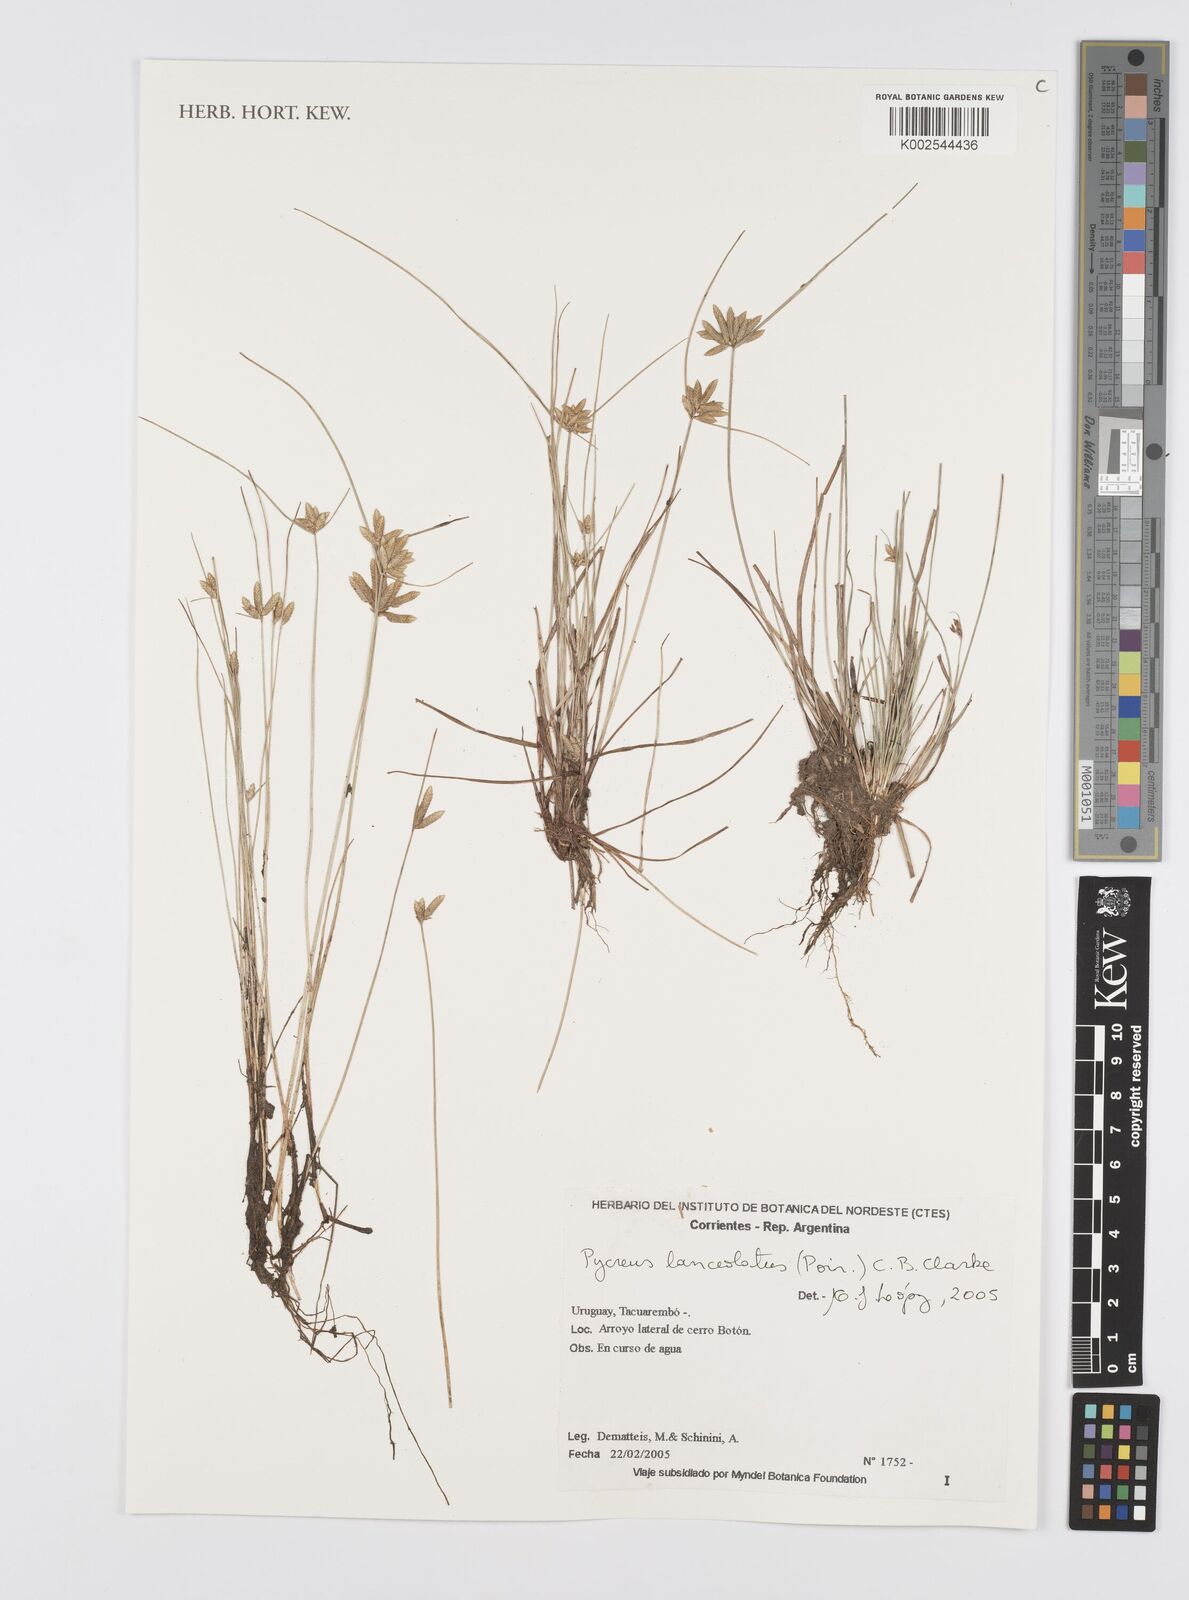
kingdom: Plantae
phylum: Tracheophyta
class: Liliopsida
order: Poales
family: Cyperaceae
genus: Cyperus
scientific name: Cyperus lanceolatus
